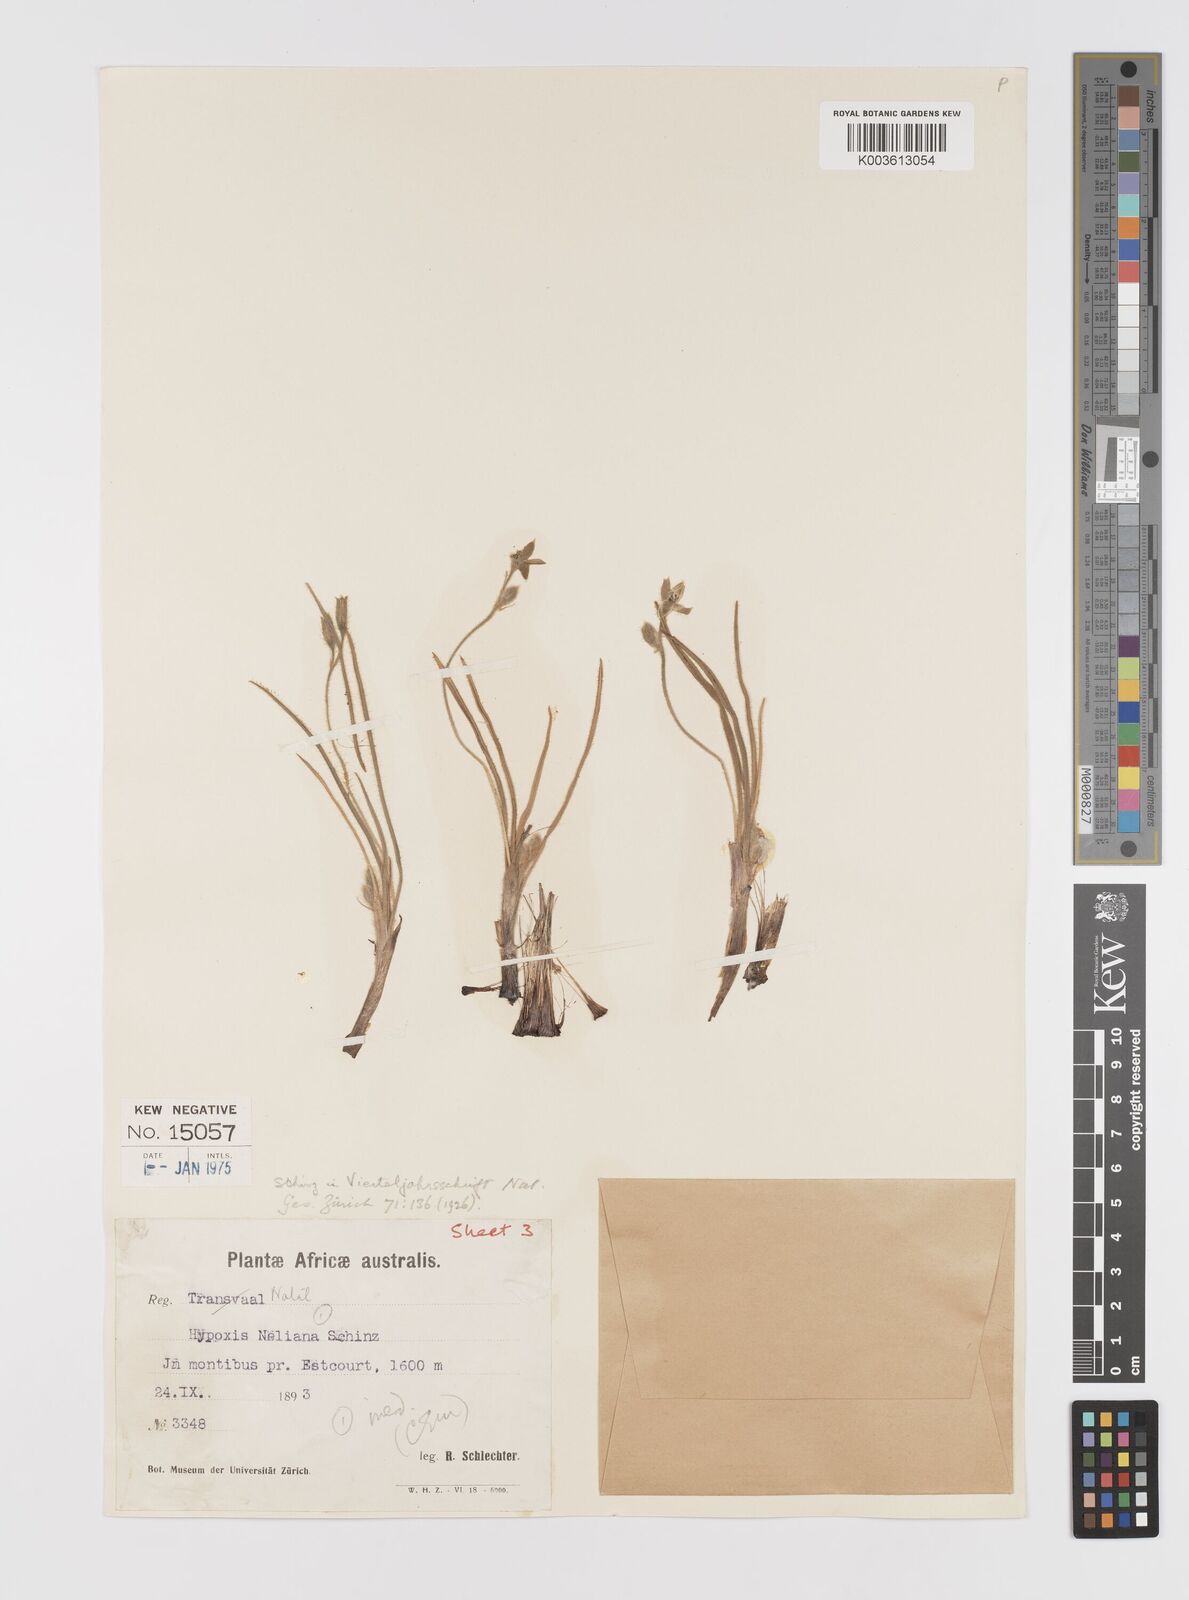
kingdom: Plantae
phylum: Tracheophyta
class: Liliopsida
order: Asparagales
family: Hypoxidaceae
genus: Hypoxis
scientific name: Hypoxis neliana
